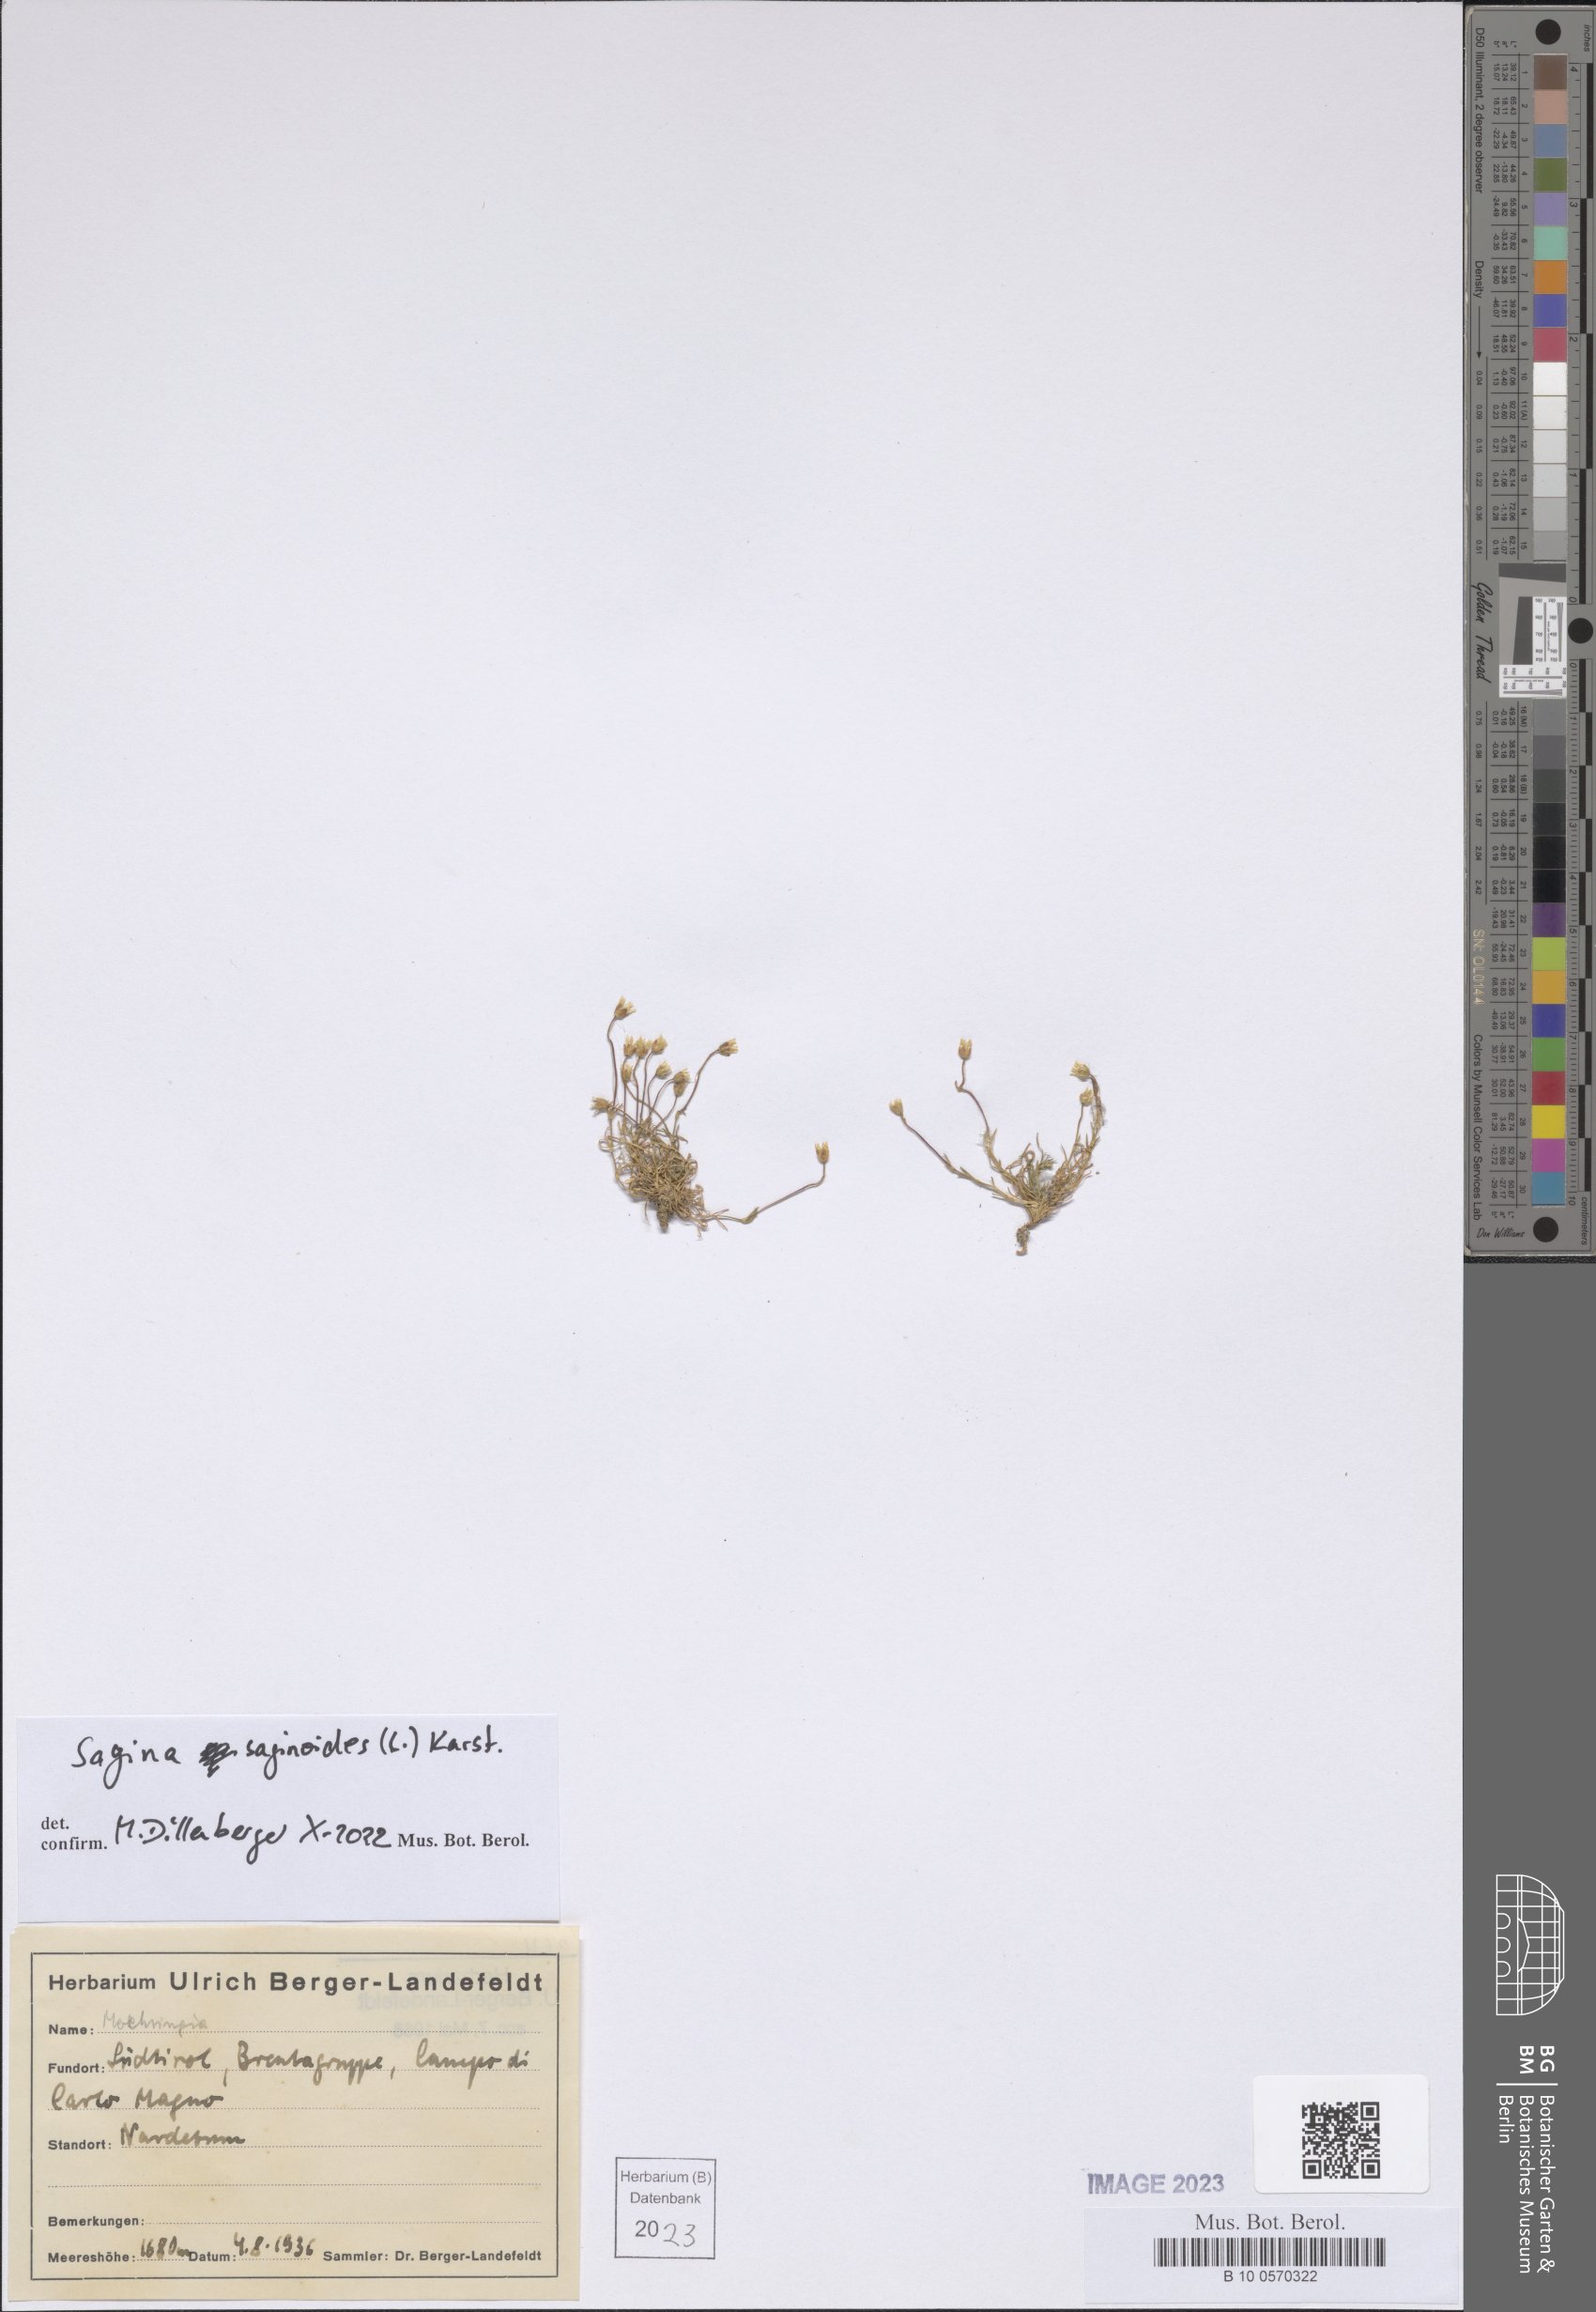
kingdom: Plantae
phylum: Tracheophyta
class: Magnoliopsida
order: Caryophyllales
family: Caryophyllaceae
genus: Sagina
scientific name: Sagina saginoides
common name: Alpine pearlwort
